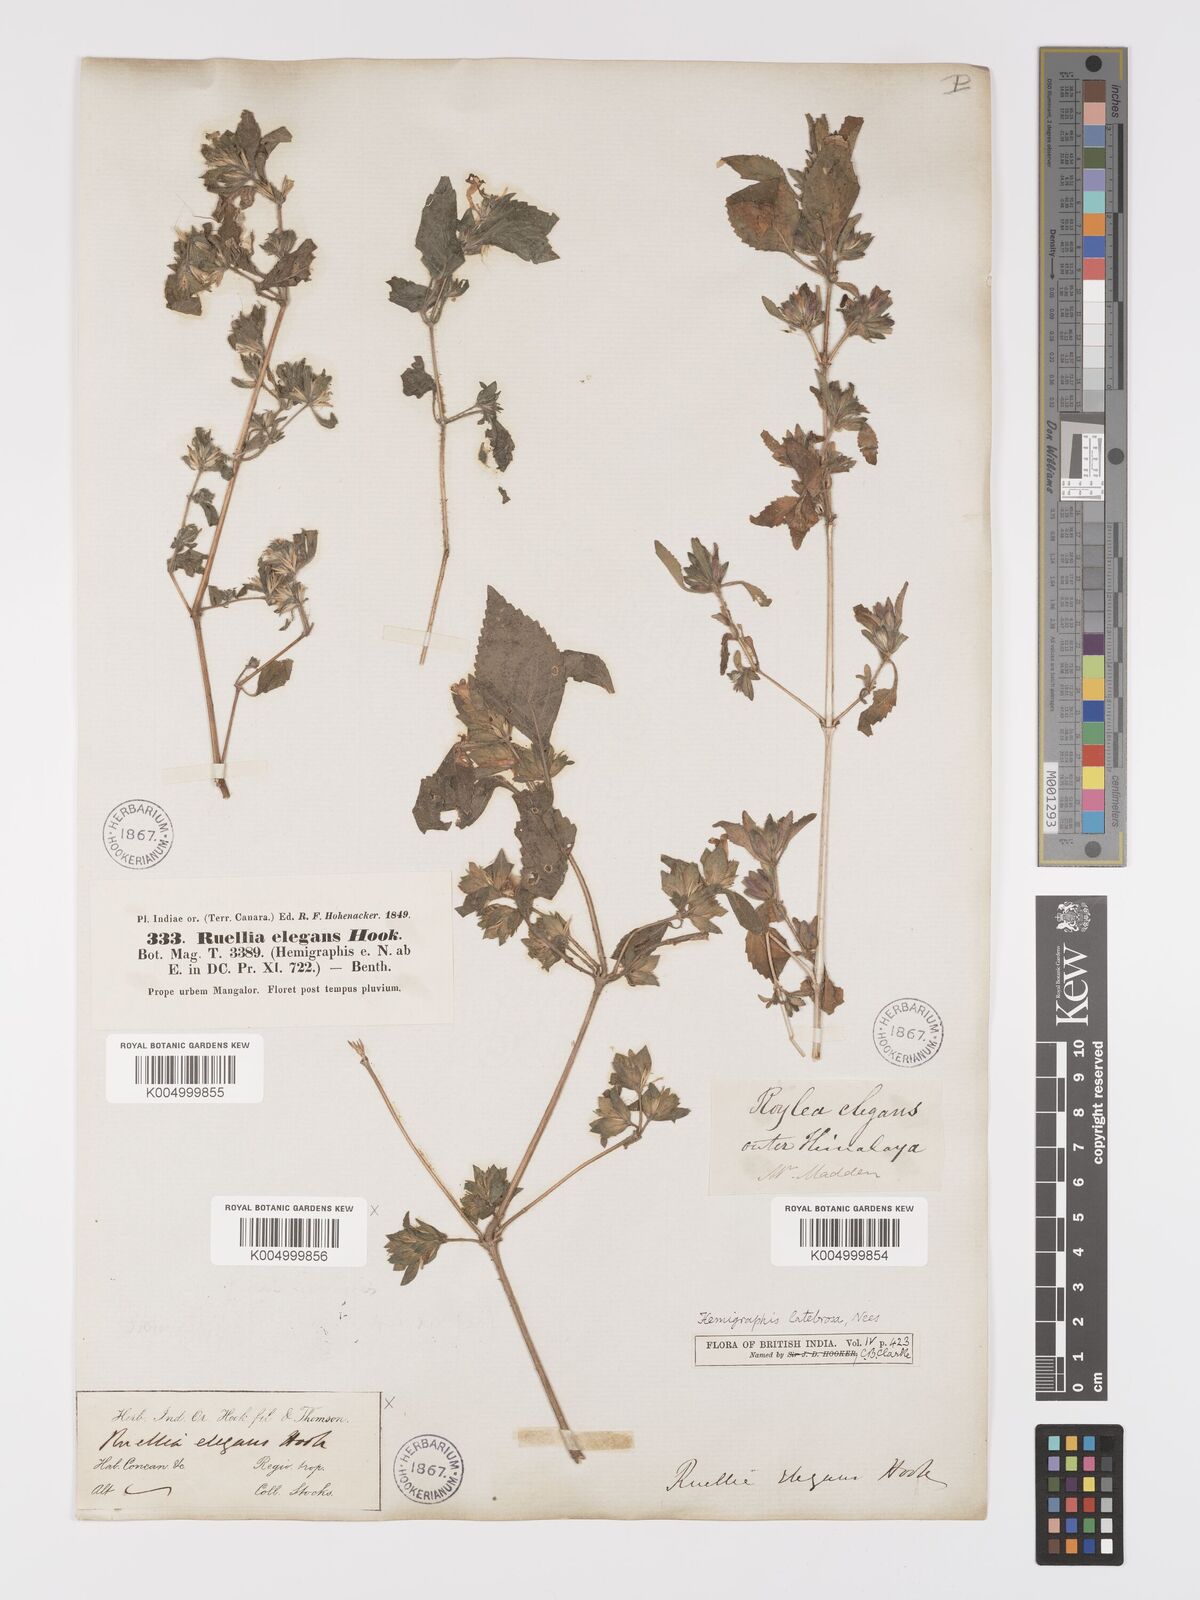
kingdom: Plantae
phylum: Tracheophyta
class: Magnoliopsida
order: Lamiales
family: Acanthaceae
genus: Strobilanthes
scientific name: Strobilanthes pavala
